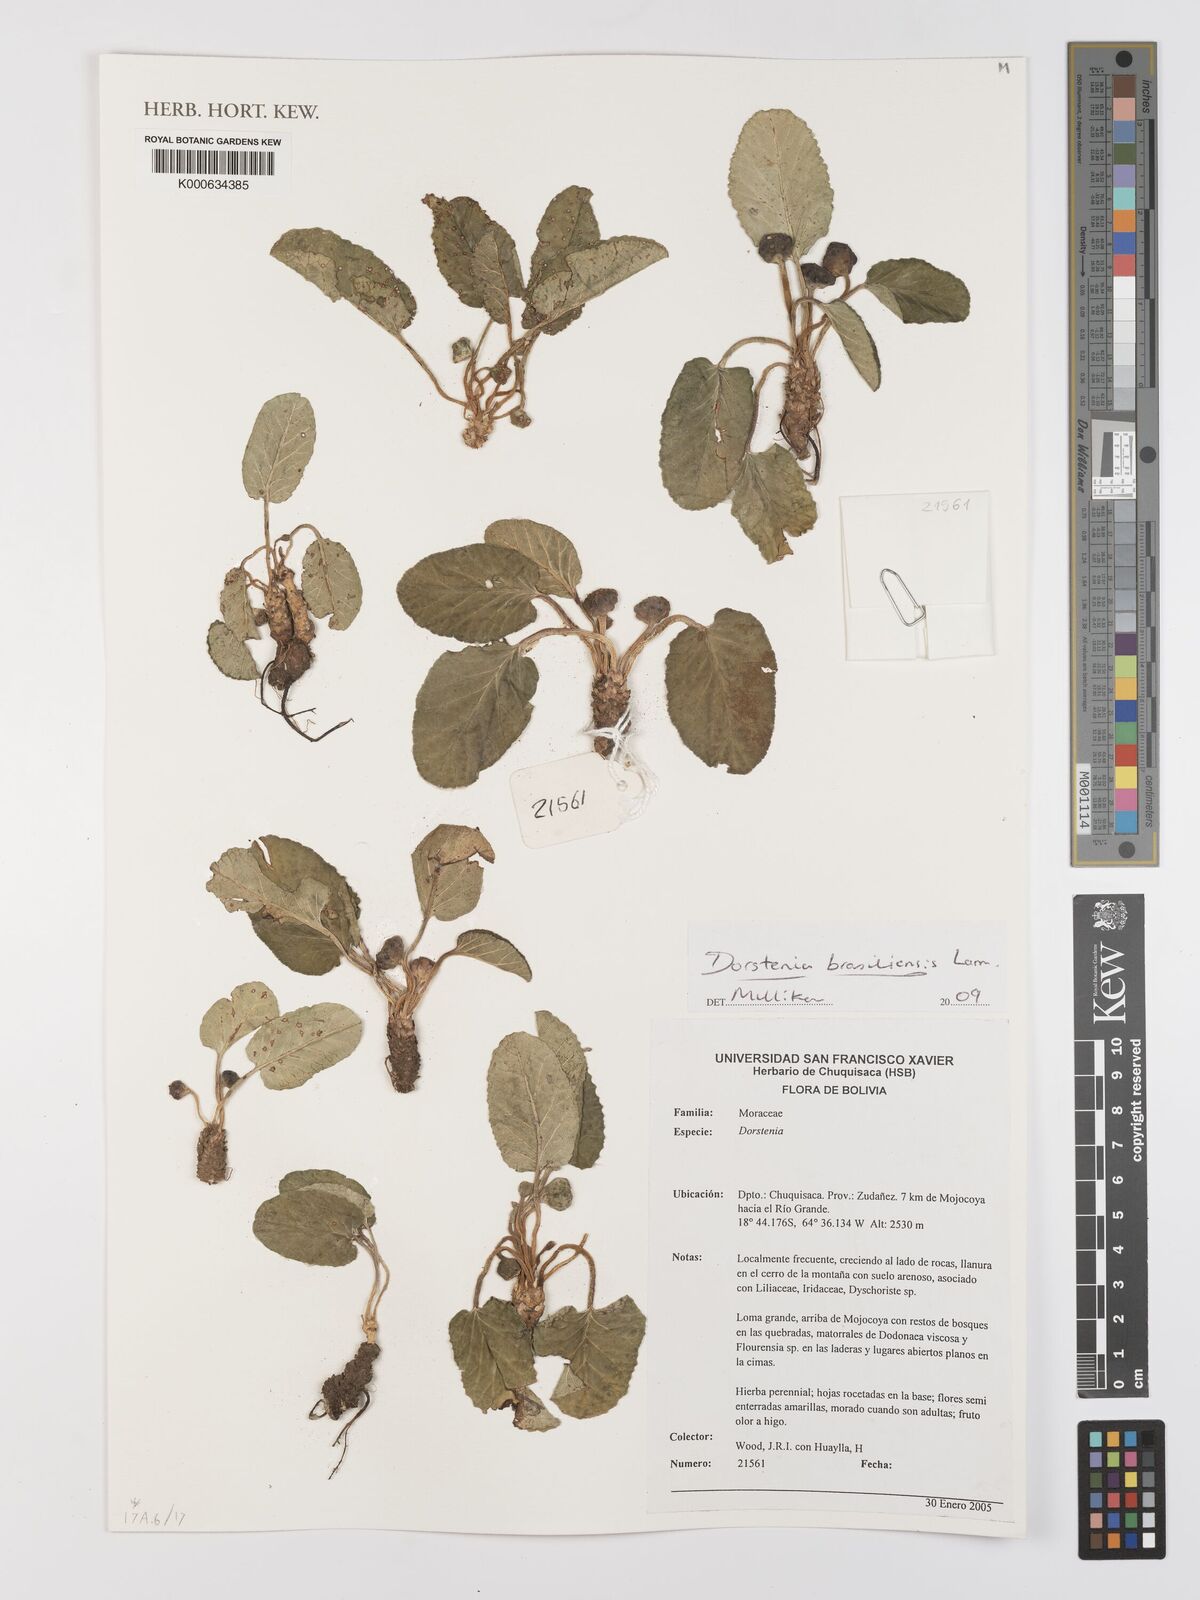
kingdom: Plantae
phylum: Tracheophyta
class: Magnoliopsida
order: Rosales
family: Moraceae
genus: Dorstenia
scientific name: Dorstenia brasiliensis
